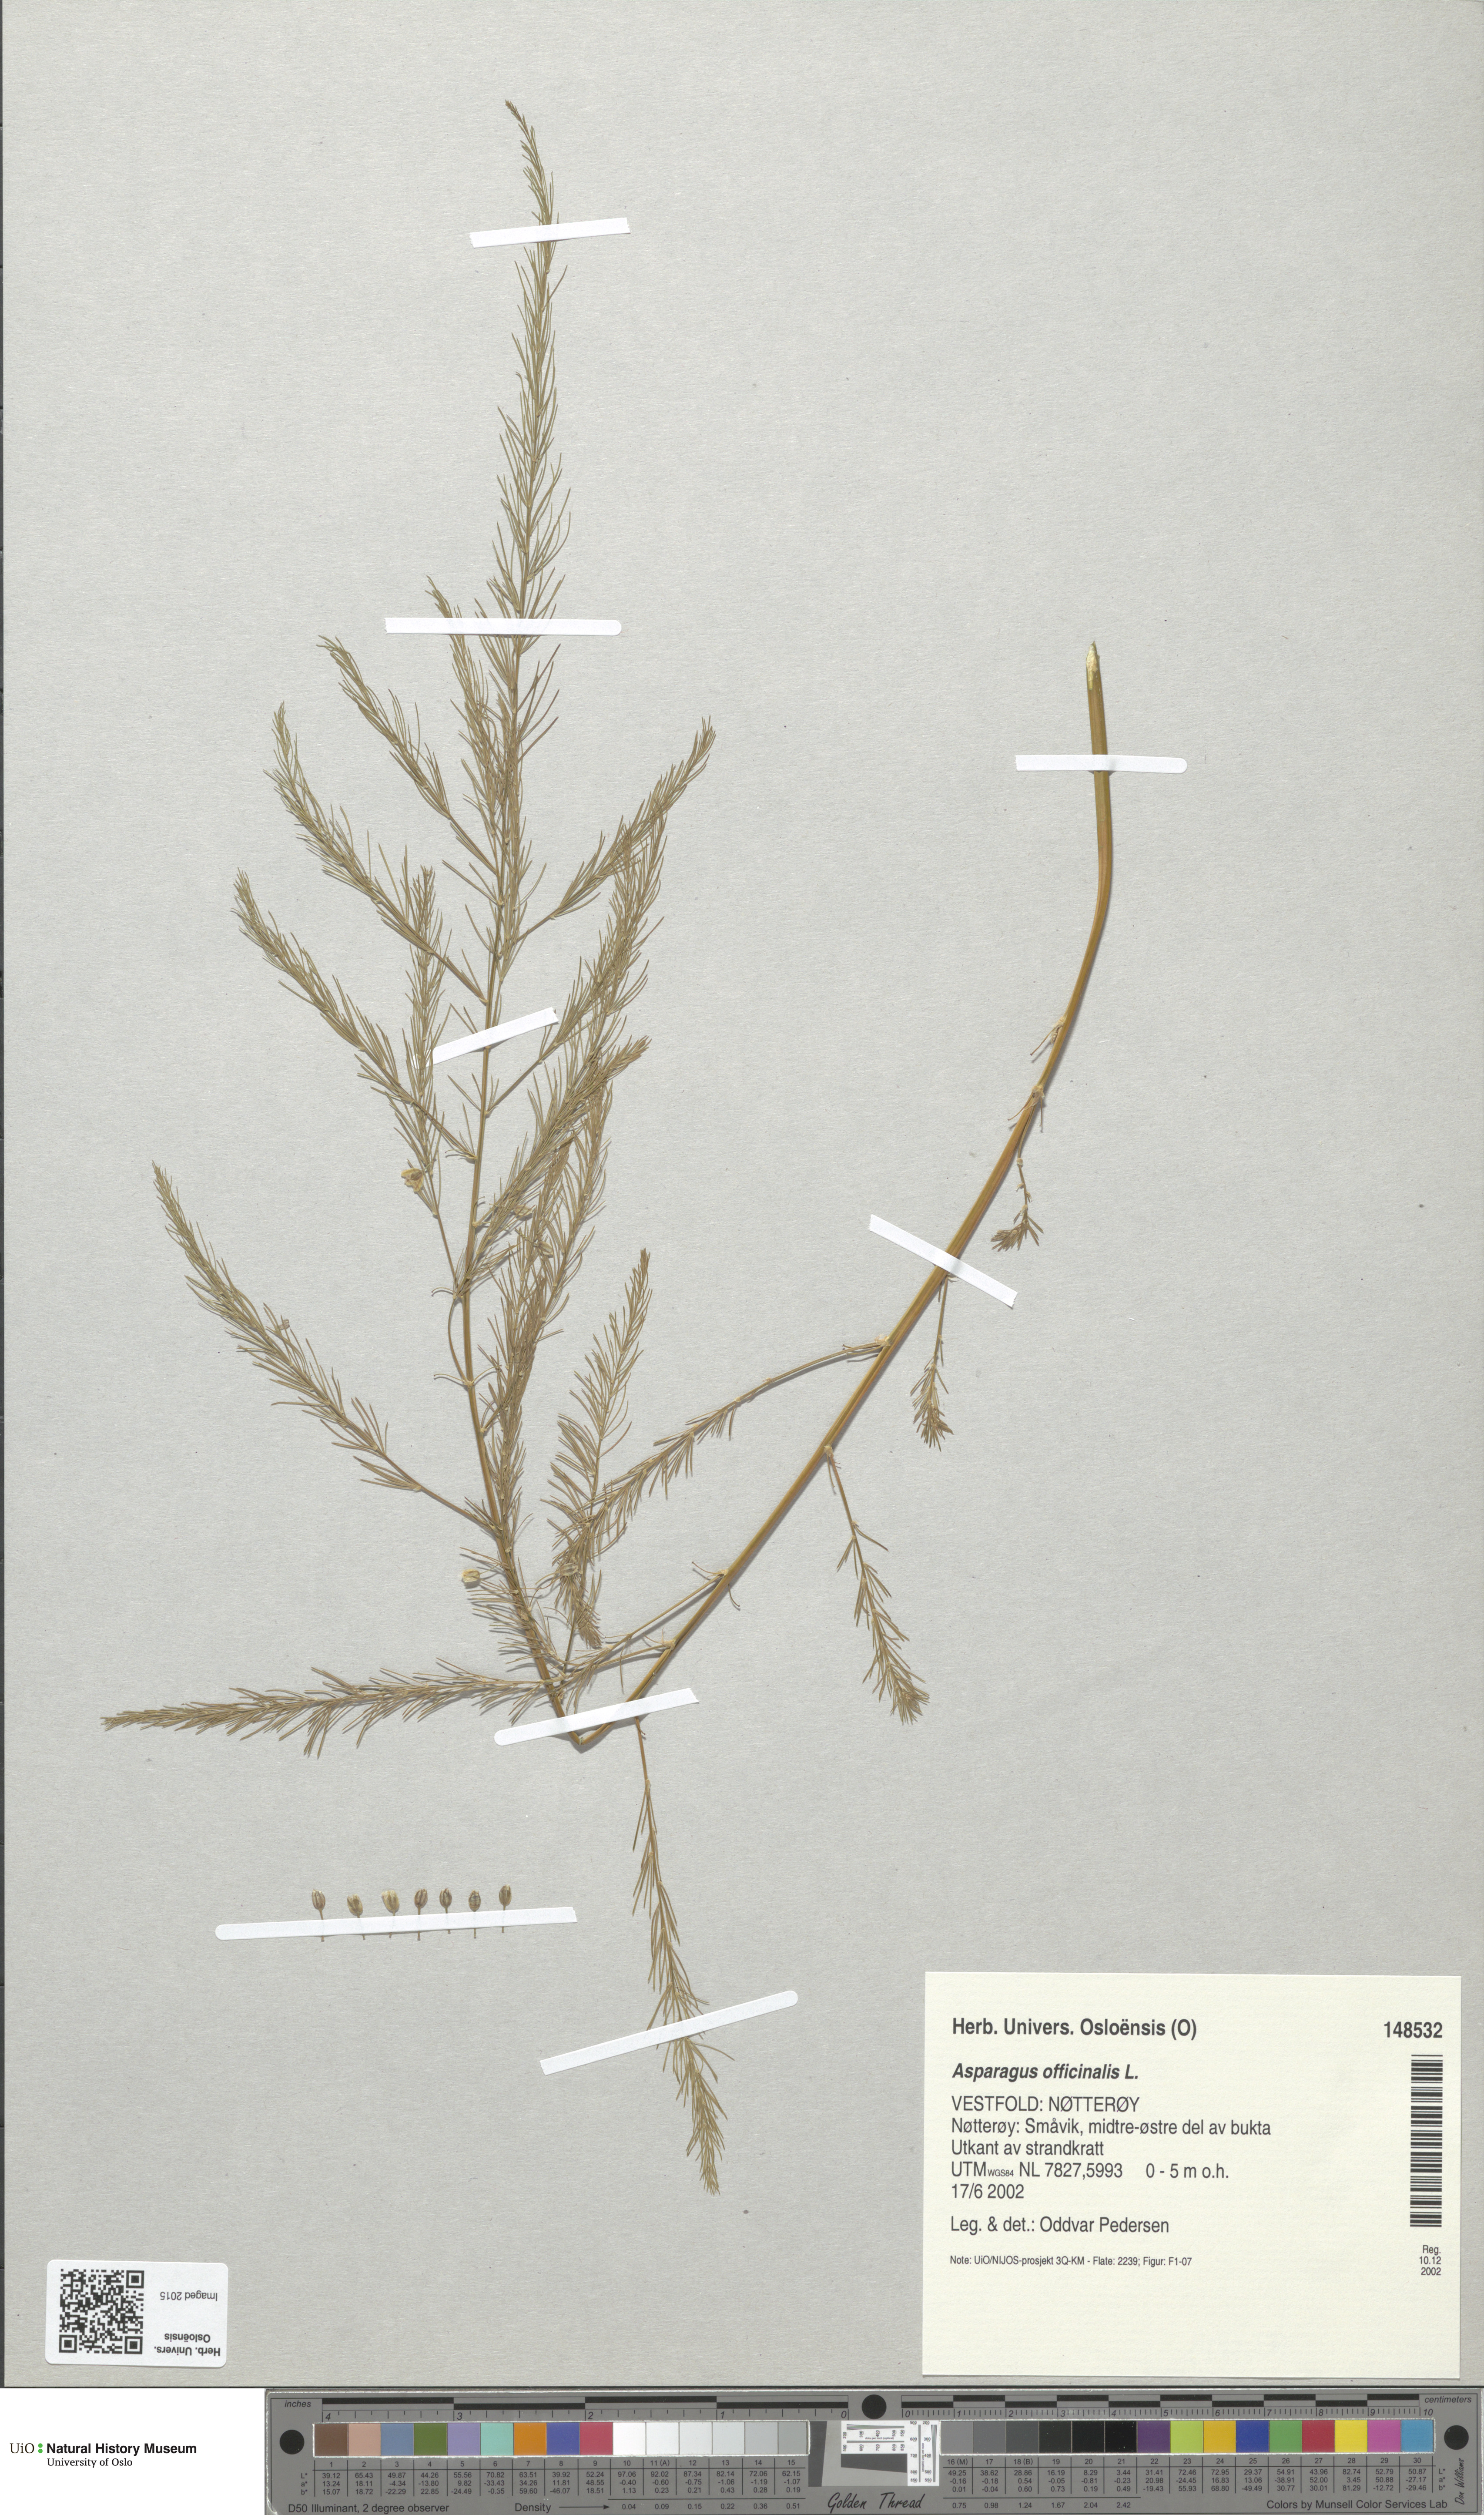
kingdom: Plantae
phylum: Tracheophyta
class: Liliopsida
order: Asparagales
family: Asparagaceae
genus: Asparagus
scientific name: Asparagus officinalis
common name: Garden asparagus
